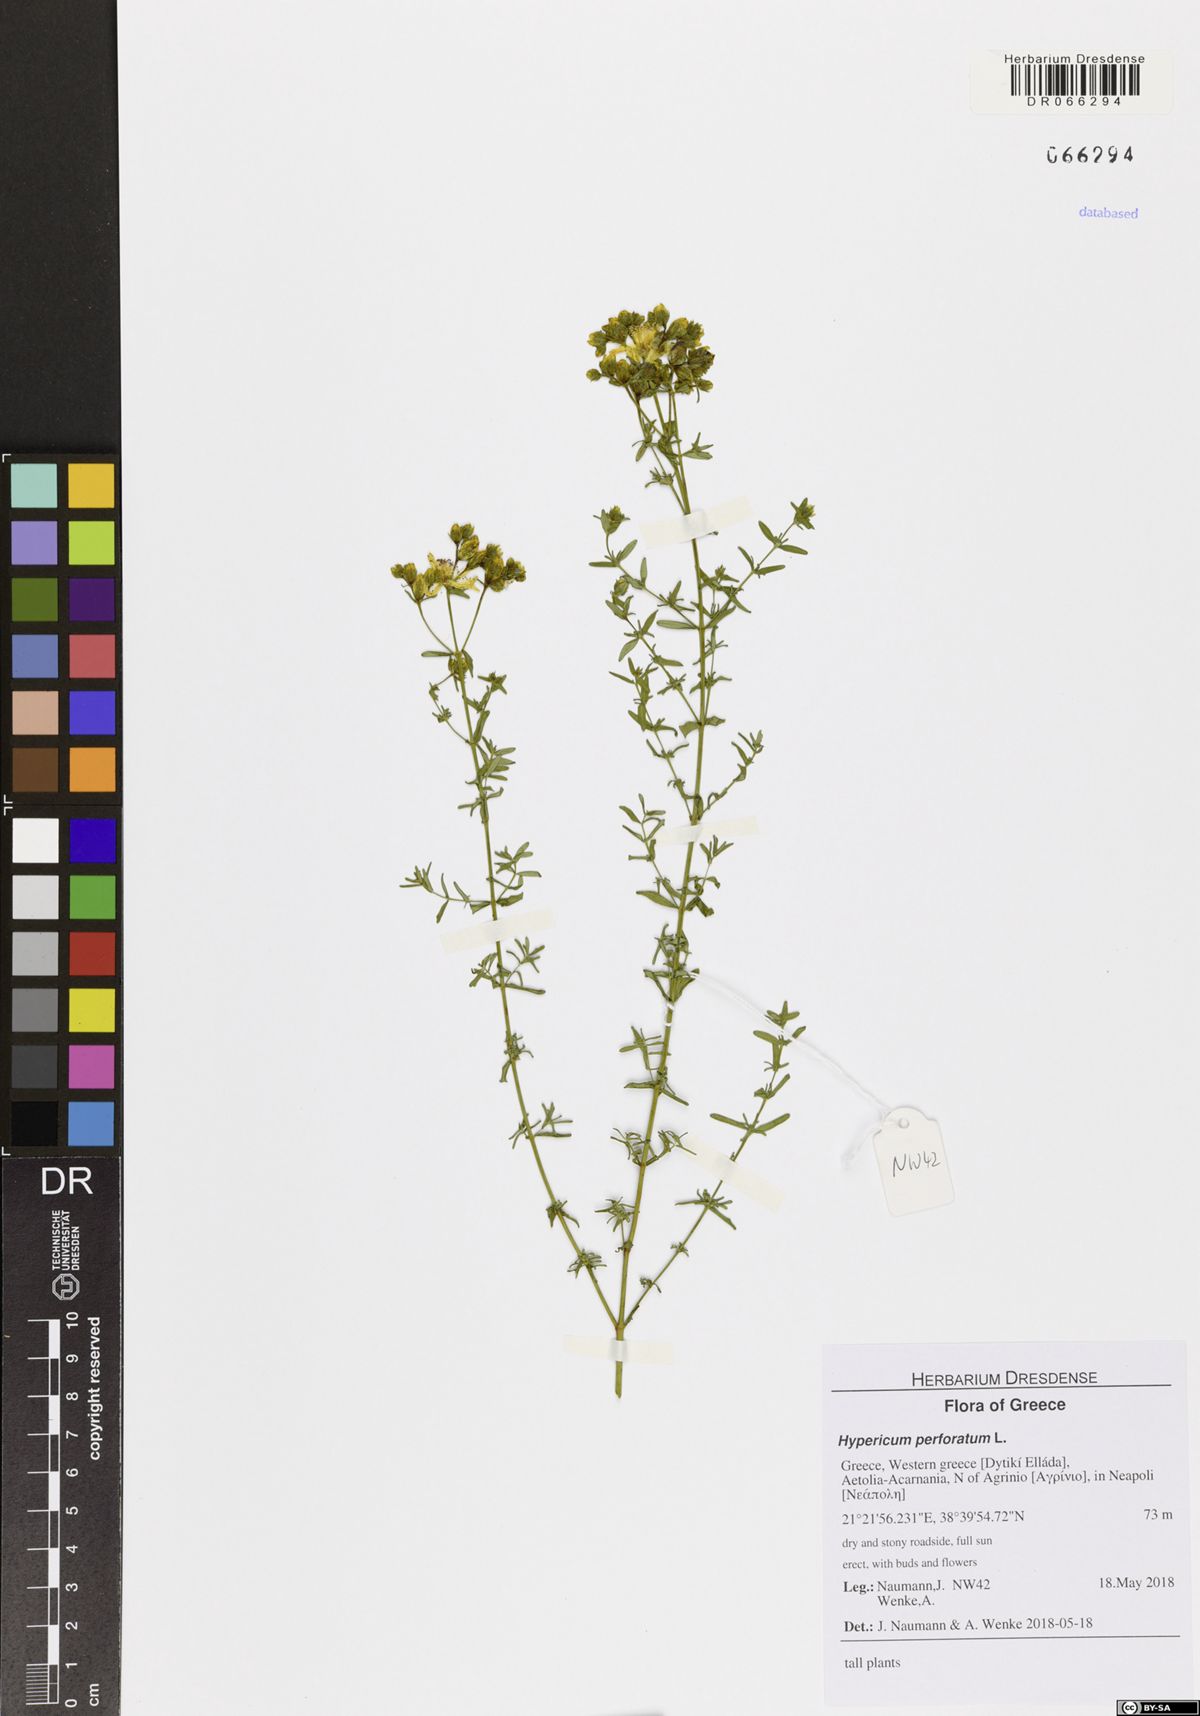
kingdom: Plantae
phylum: Tracheophyta
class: Magnoliopsida
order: Malpighiales
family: Hypericaceae
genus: Hypericum
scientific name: Hypericum perforatum
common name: Common st. johnswort
